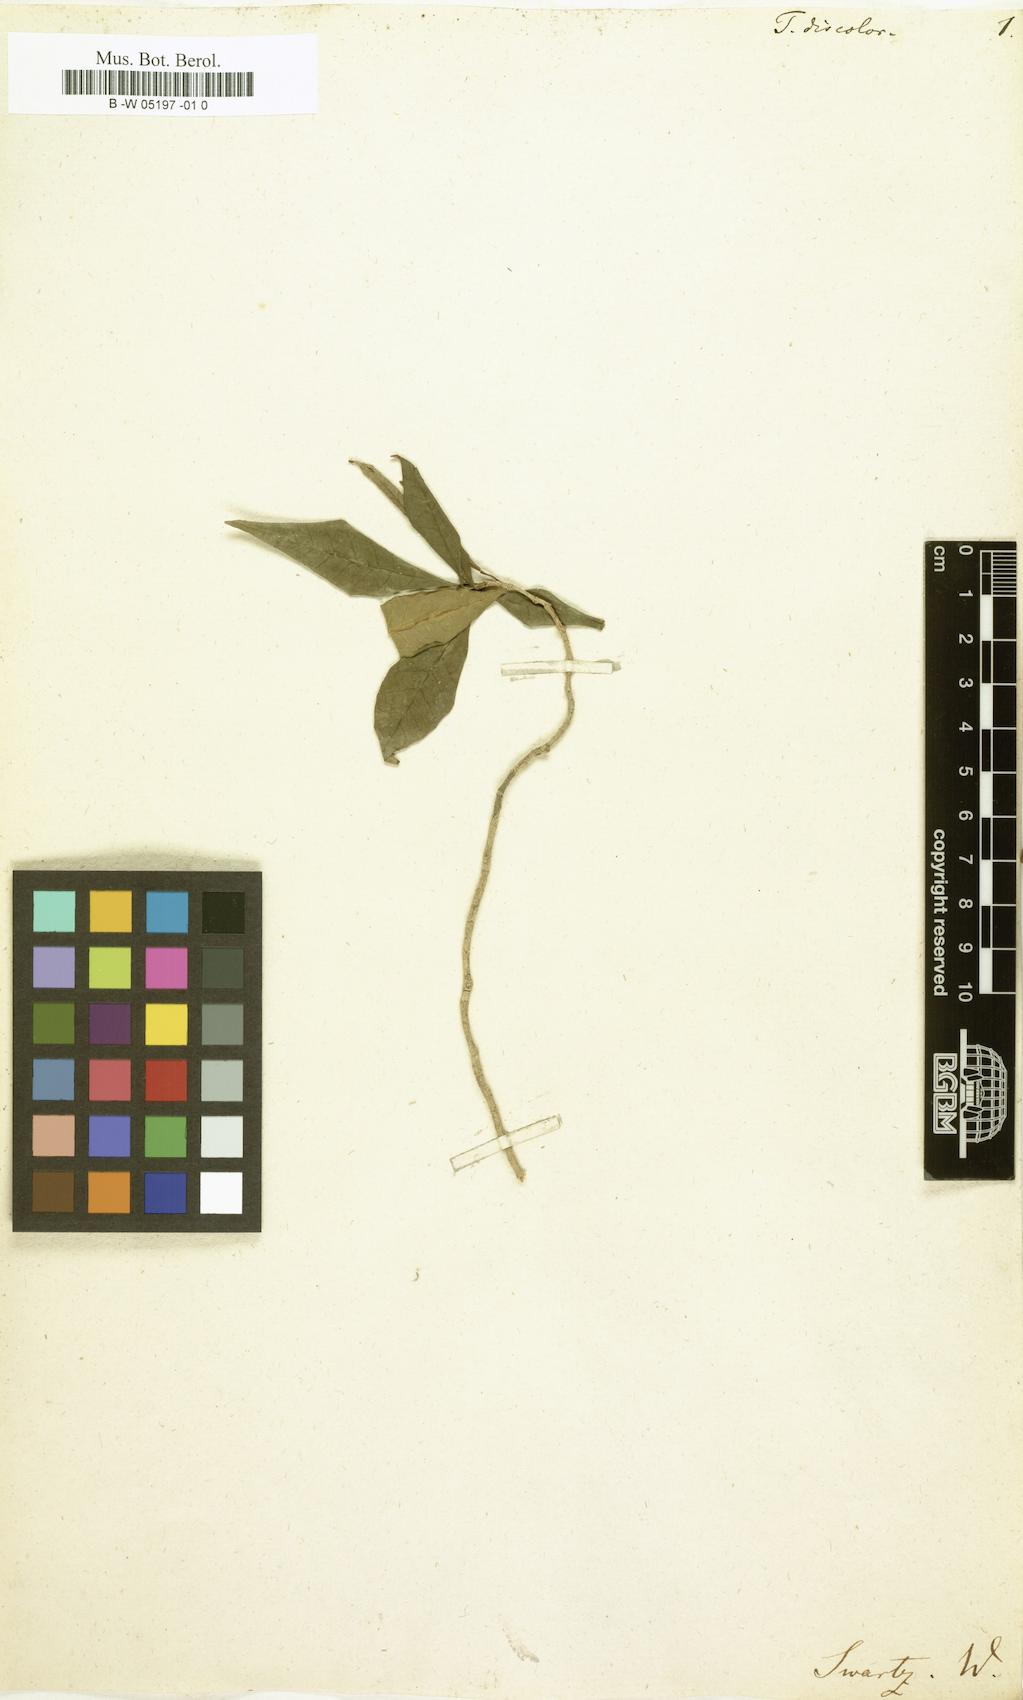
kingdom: Plantae
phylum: Tracheophyta
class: Magnoliopsida
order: Gentianales
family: Apocynaceae
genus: Tabernaemontana
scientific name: Tabernaemontana divaricata
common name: Pinwheelflower
